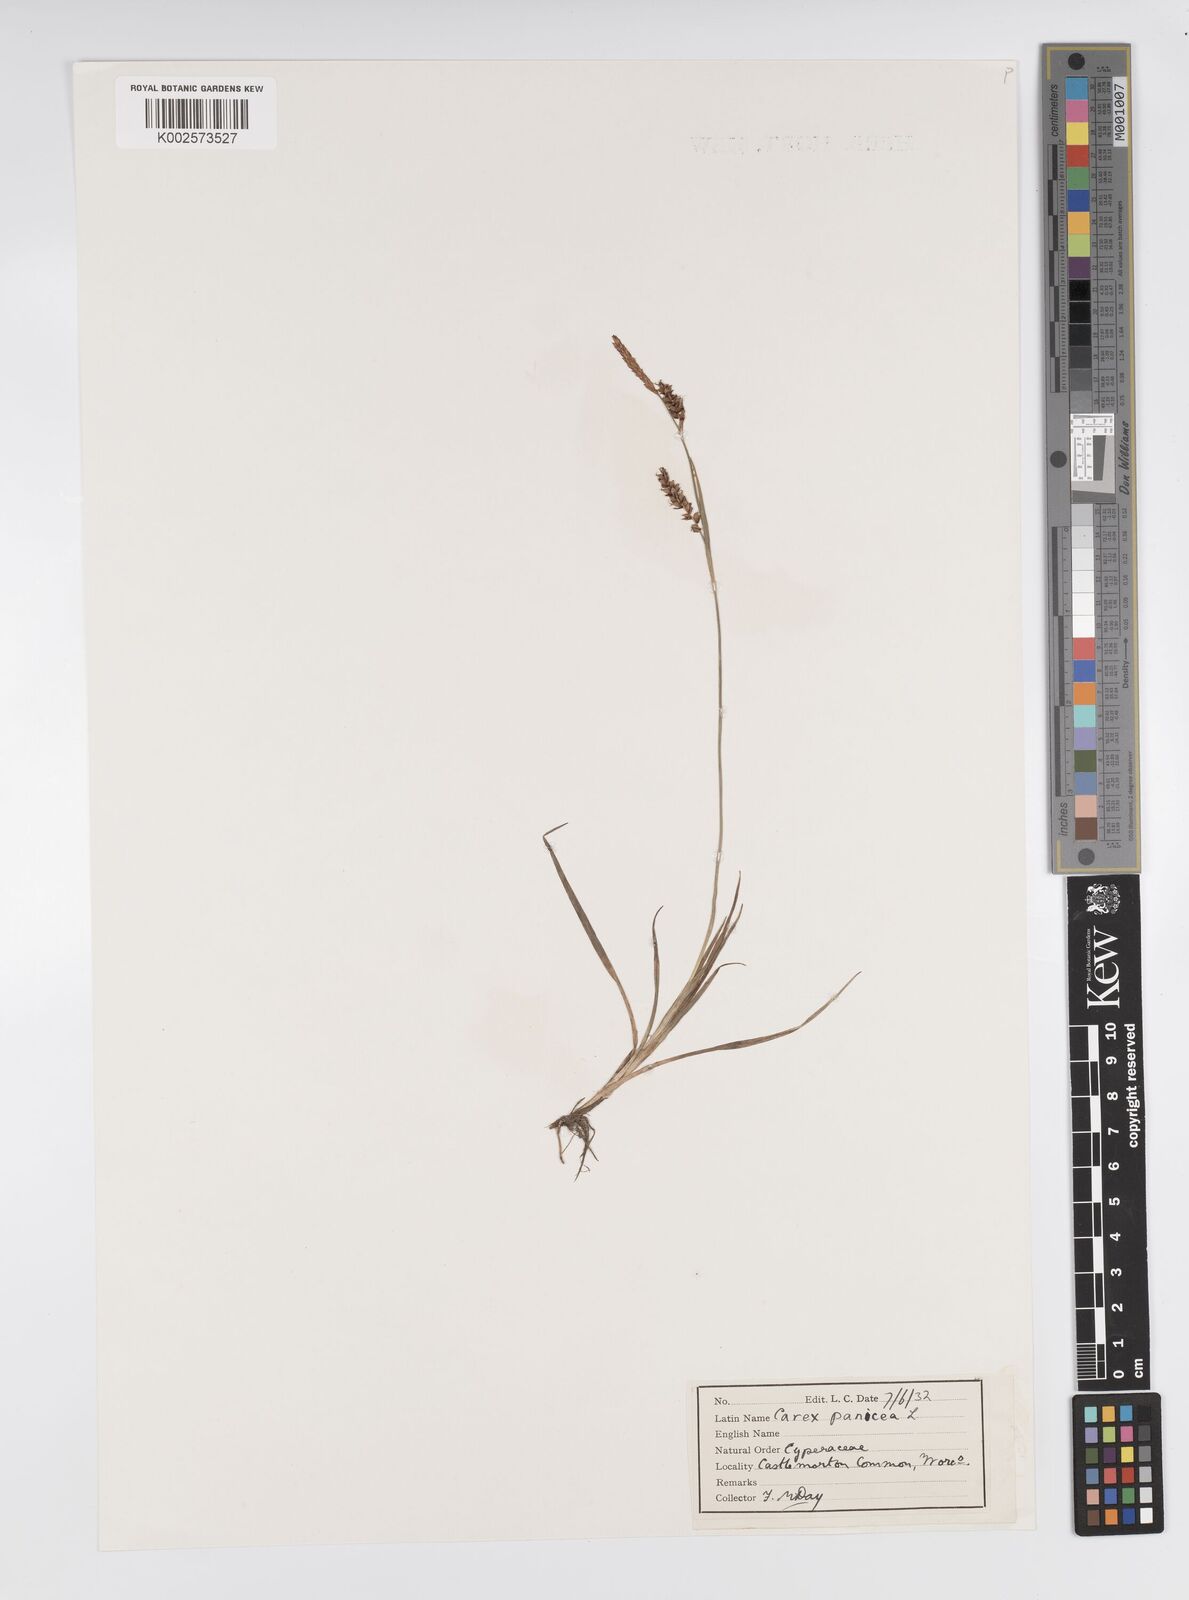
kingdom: Plantae
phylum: Tracheophyta
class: Liliopsida
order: Poales
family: Cyperaceae
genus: Carex
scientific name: Carex panicea
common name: Carnation sedge
